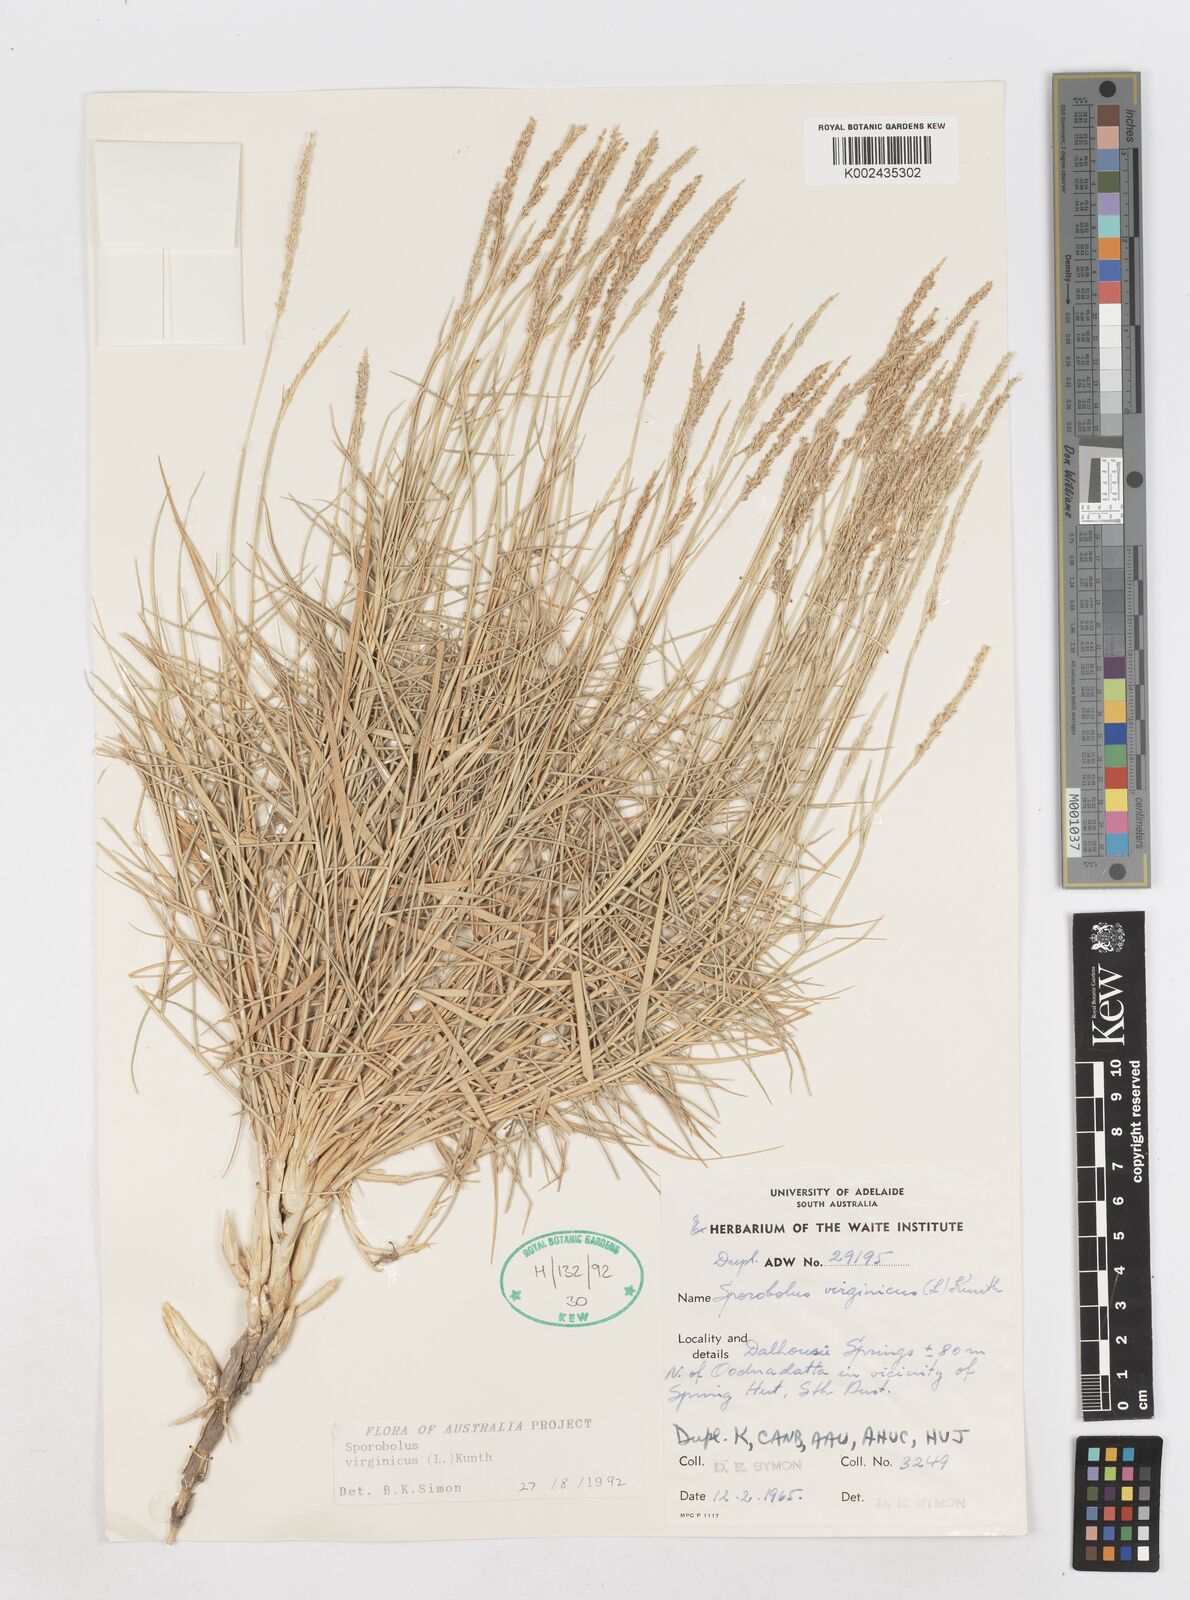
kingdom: Plantae
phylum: Tracheophyta
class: Liliopsida
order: Poales
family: Poaceae
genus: Sporobolus
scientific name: Sporobolus virginicus
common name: Beach dropseed
